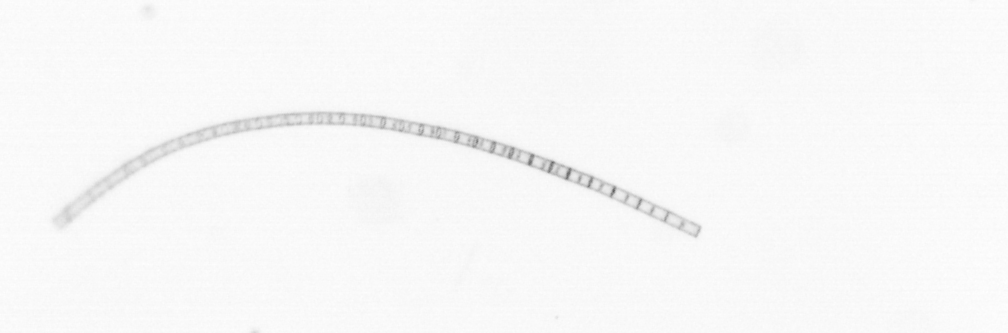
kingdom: Chromista
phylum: Ochrophyta
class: Bacillariophyceae
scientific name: Bacillariophyceae
